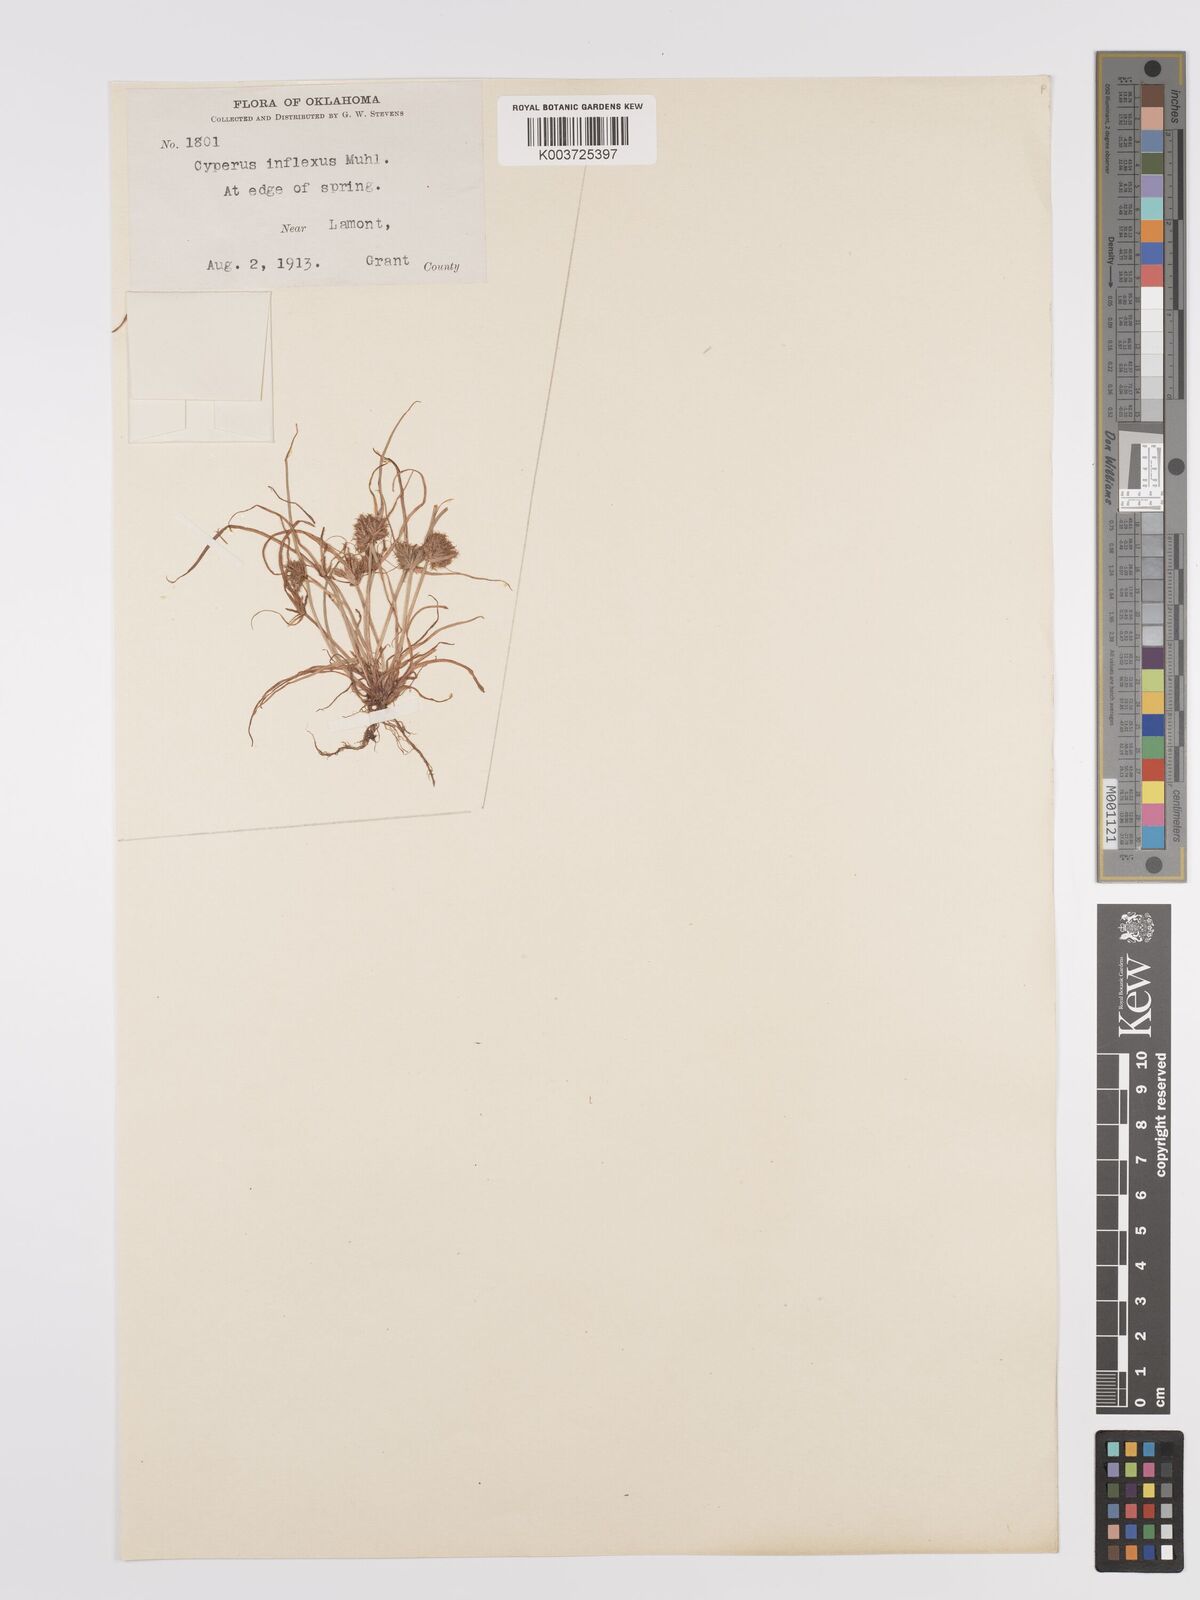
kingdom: Plantae
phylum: Tracheophyta
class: Liliopsida
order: Poales
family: Cyperaceae
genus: Cyperus
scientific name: Cyperus squarrosus
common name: Awned cyperus
